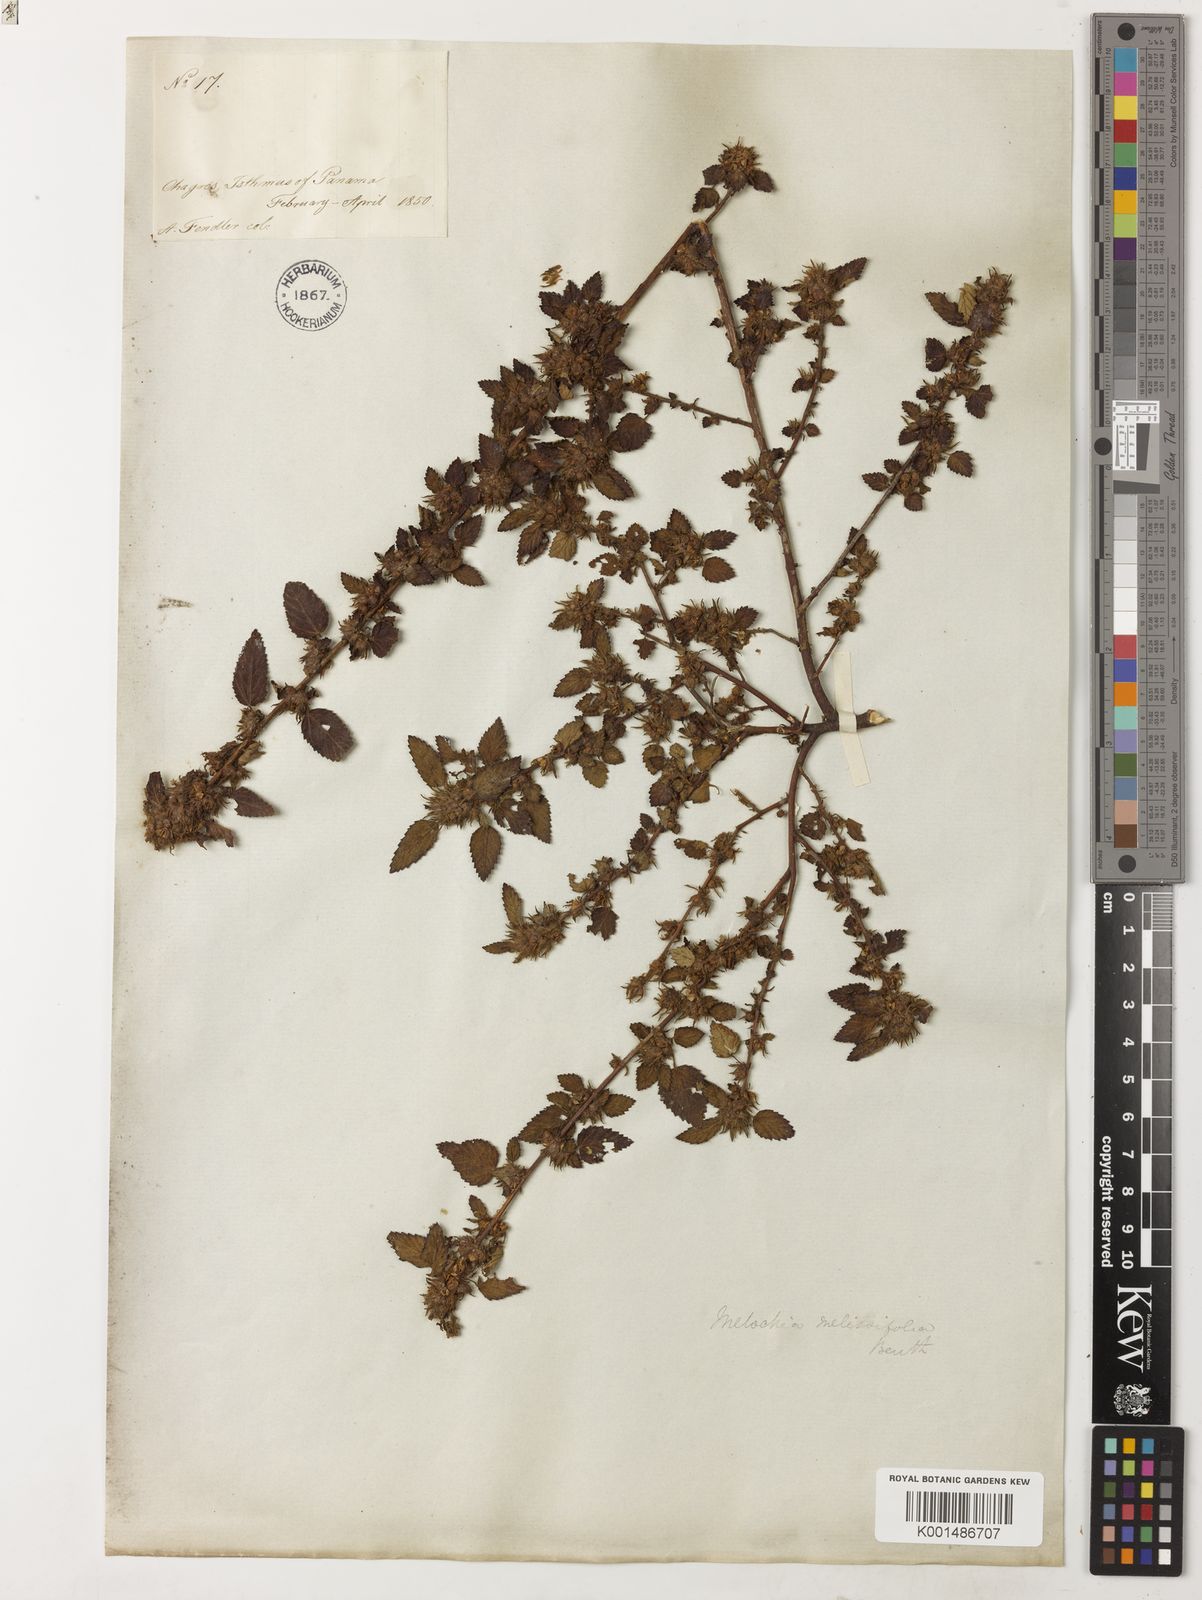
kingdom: Plantae
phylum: Tracheophyta
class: Magnoliopsida
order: Malvales
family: Malvaceae
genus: Melochia
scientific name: Melochia melissifolia
